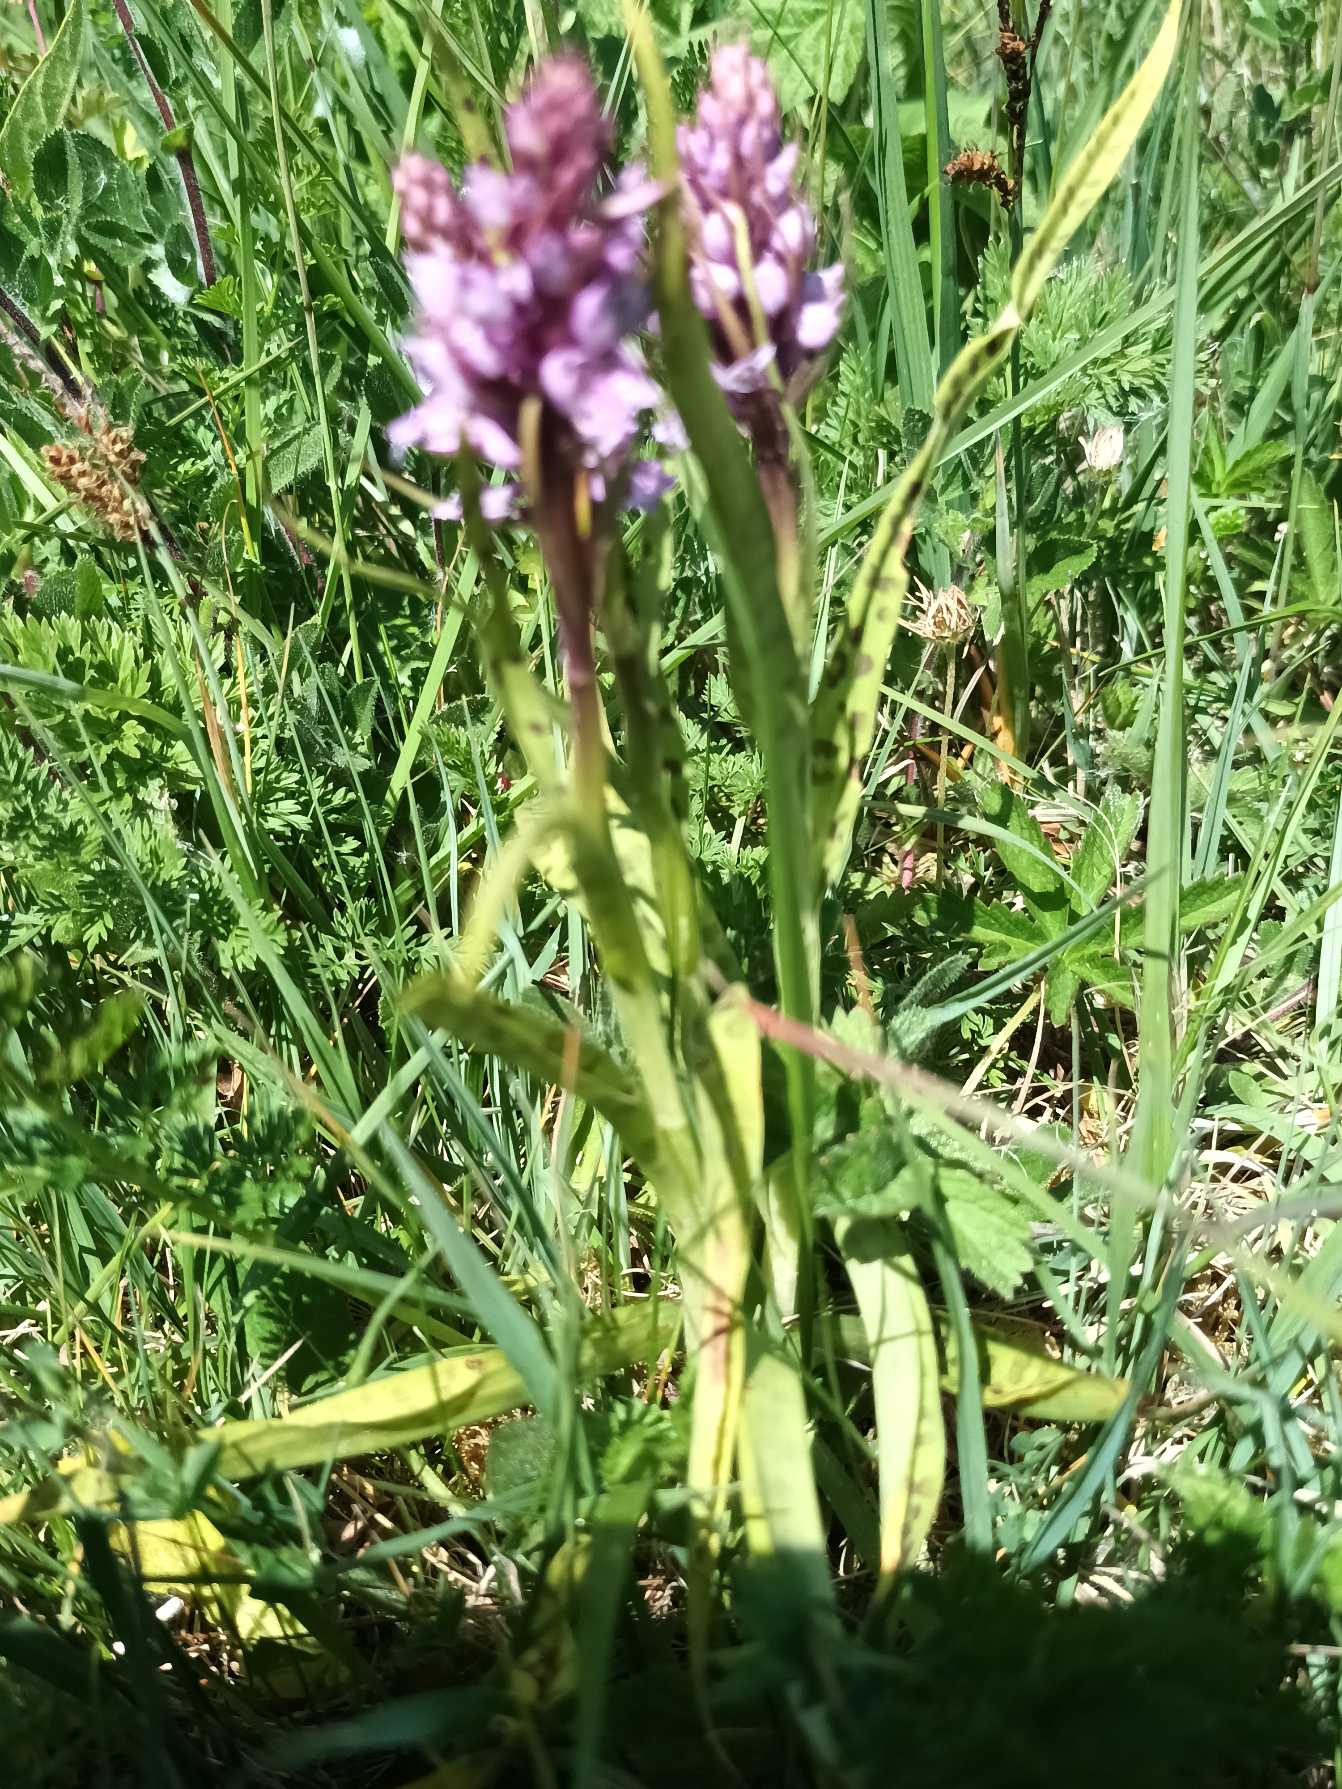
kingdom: Plantae
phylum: Tracheophyta
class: Liliopsida
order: Asparagales
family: Orchidaceae
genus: Dactylorhiza
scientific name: Dactylorhiza maculata
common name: Plettet gøgeurt
